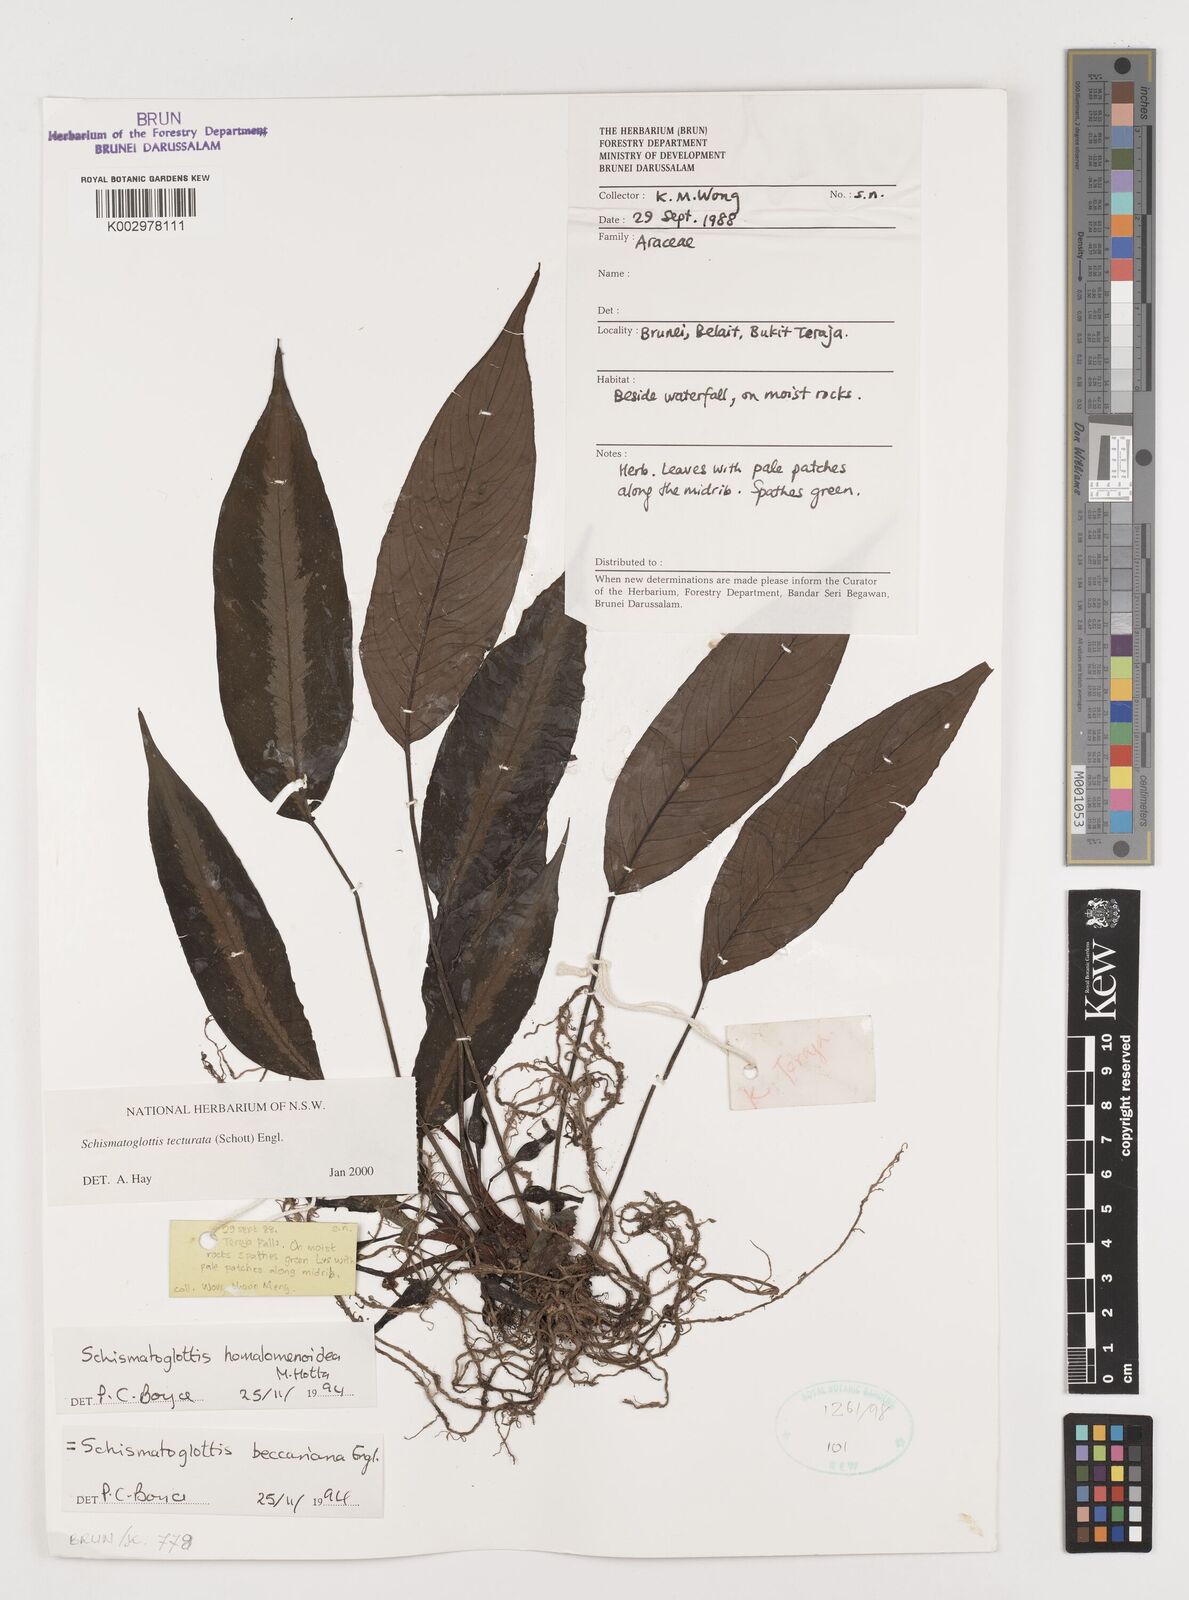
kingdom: Plantae
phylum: Tracheophyta
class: Liliopsida
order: Zingiberales
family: Costaceae
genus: Colobogynium
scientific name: Colobogynium variegatum
